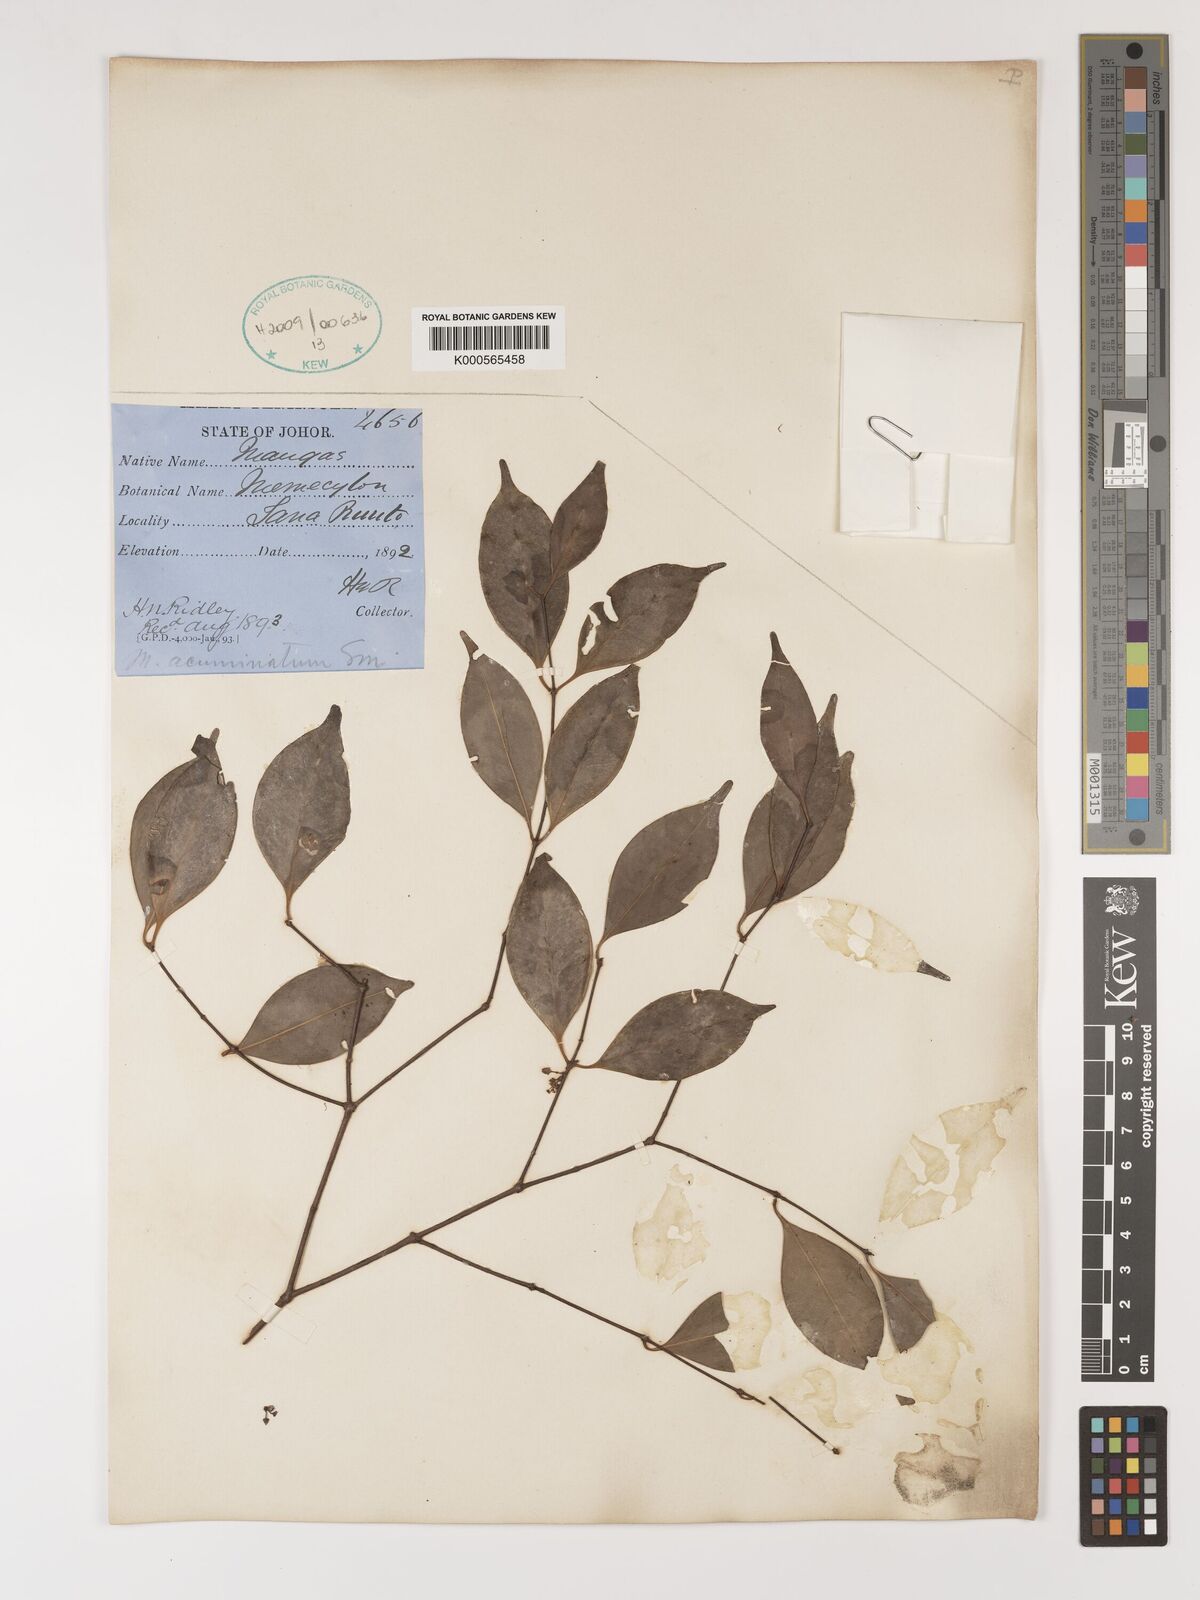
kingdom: Plantae
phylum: Tracheophyta
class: Magnoliopsida
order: Myrtales
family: Melastomataceae
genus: Memecylon
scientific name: Memecylon
